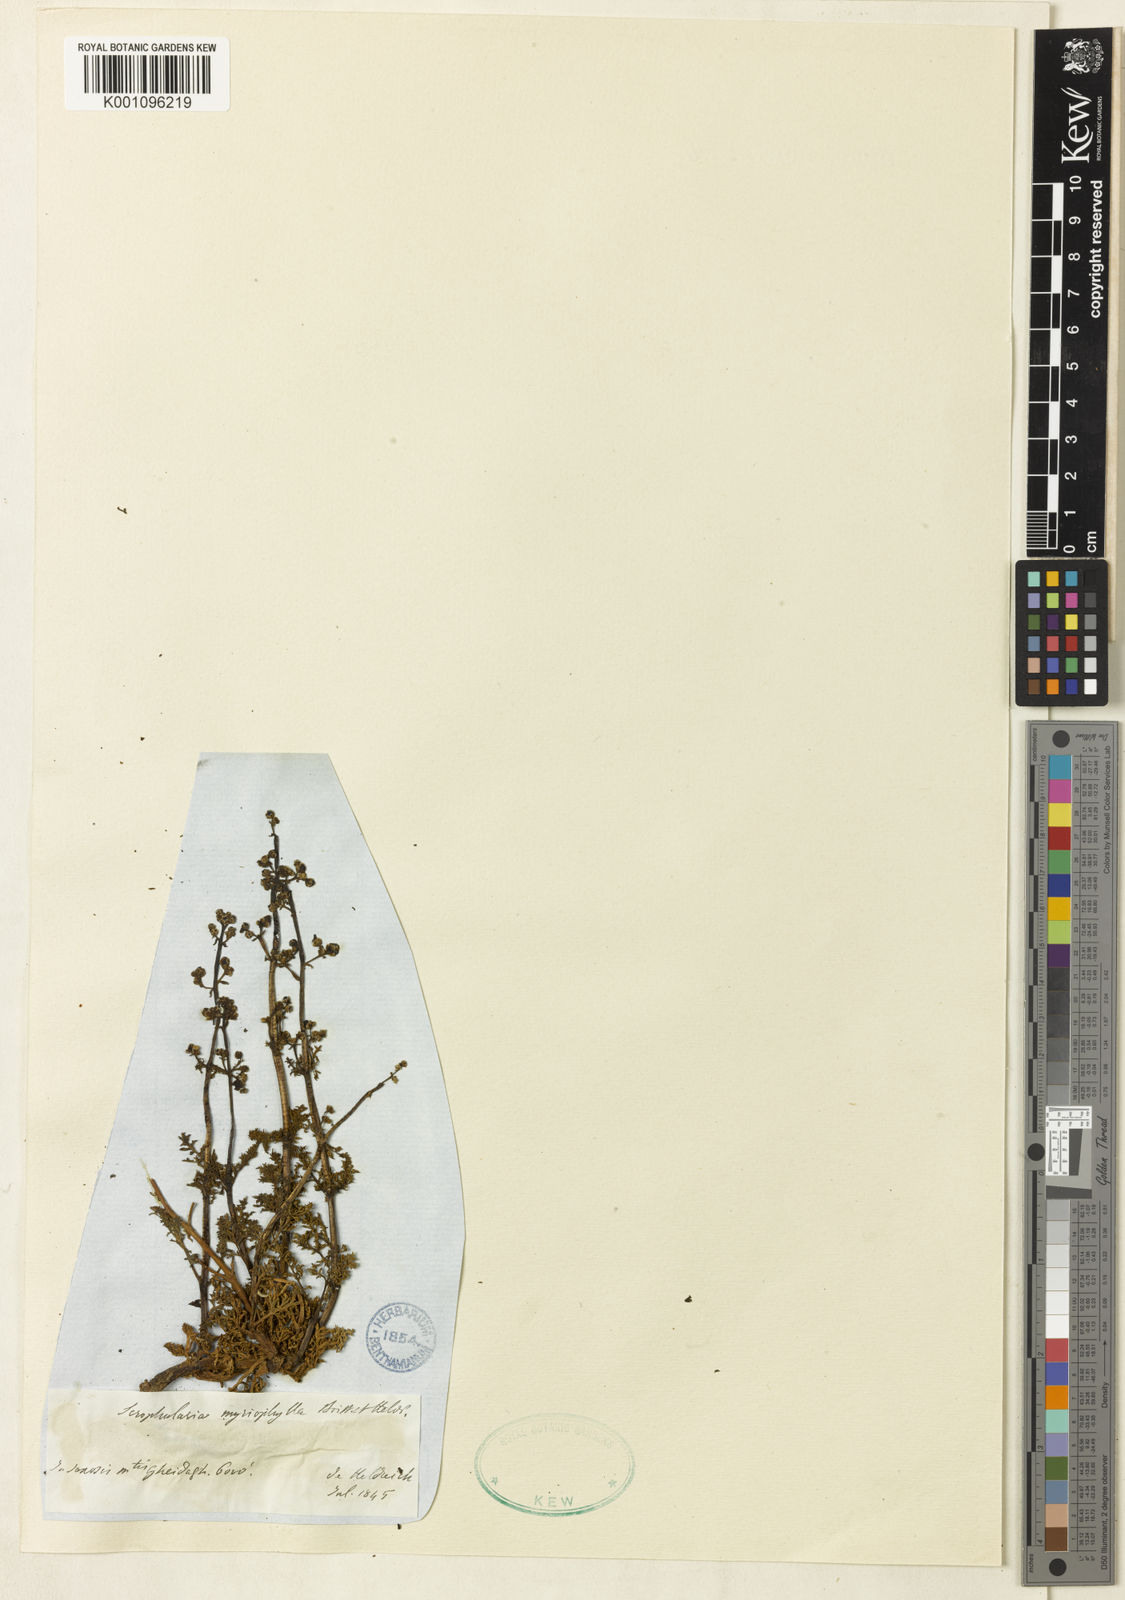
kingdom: Plantae
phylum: Tracheophyta
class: Magnoliopsida
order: Lamiales
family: Scrophulariaceae
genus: Scrophularia
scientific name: Scrophularia myriophylla
